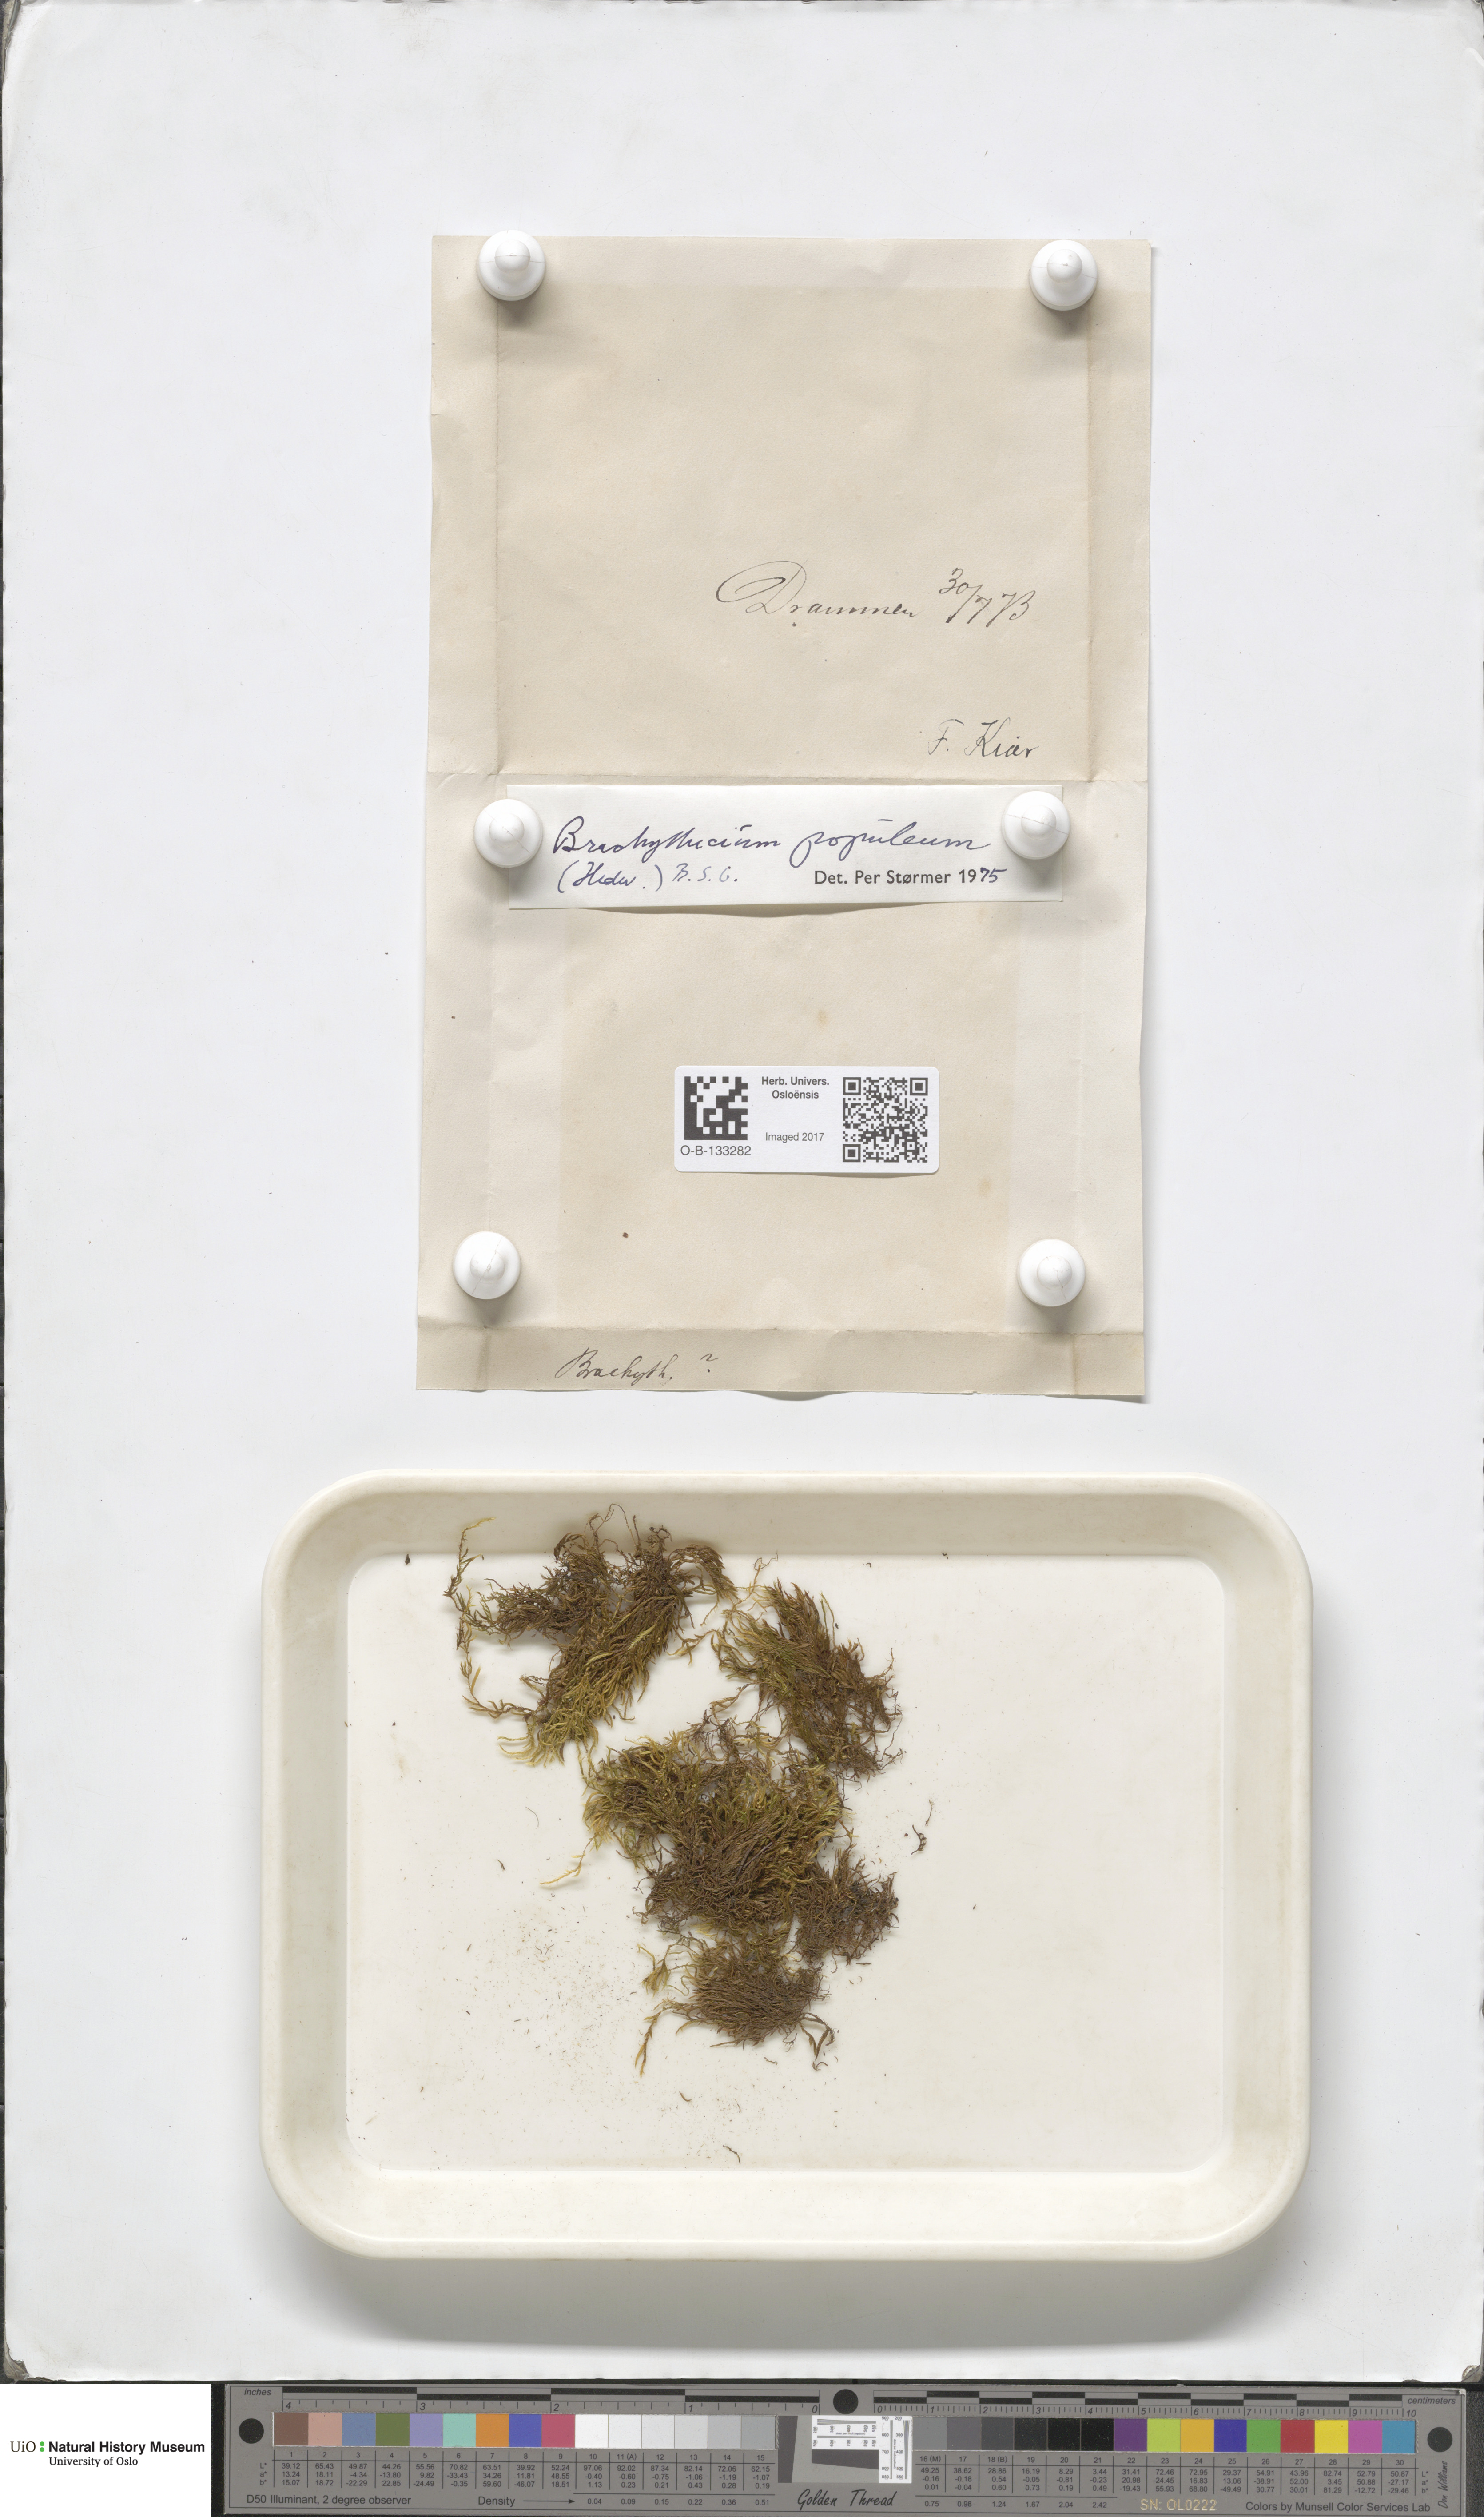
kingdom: Plantae
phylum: Bryophyta
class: Bryopsida
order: Hypnales
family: Brachytheciaceae
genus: Sciuro-hypnum
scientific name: Sciuro-hypnum plumosum
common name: Rusty feather-moss
